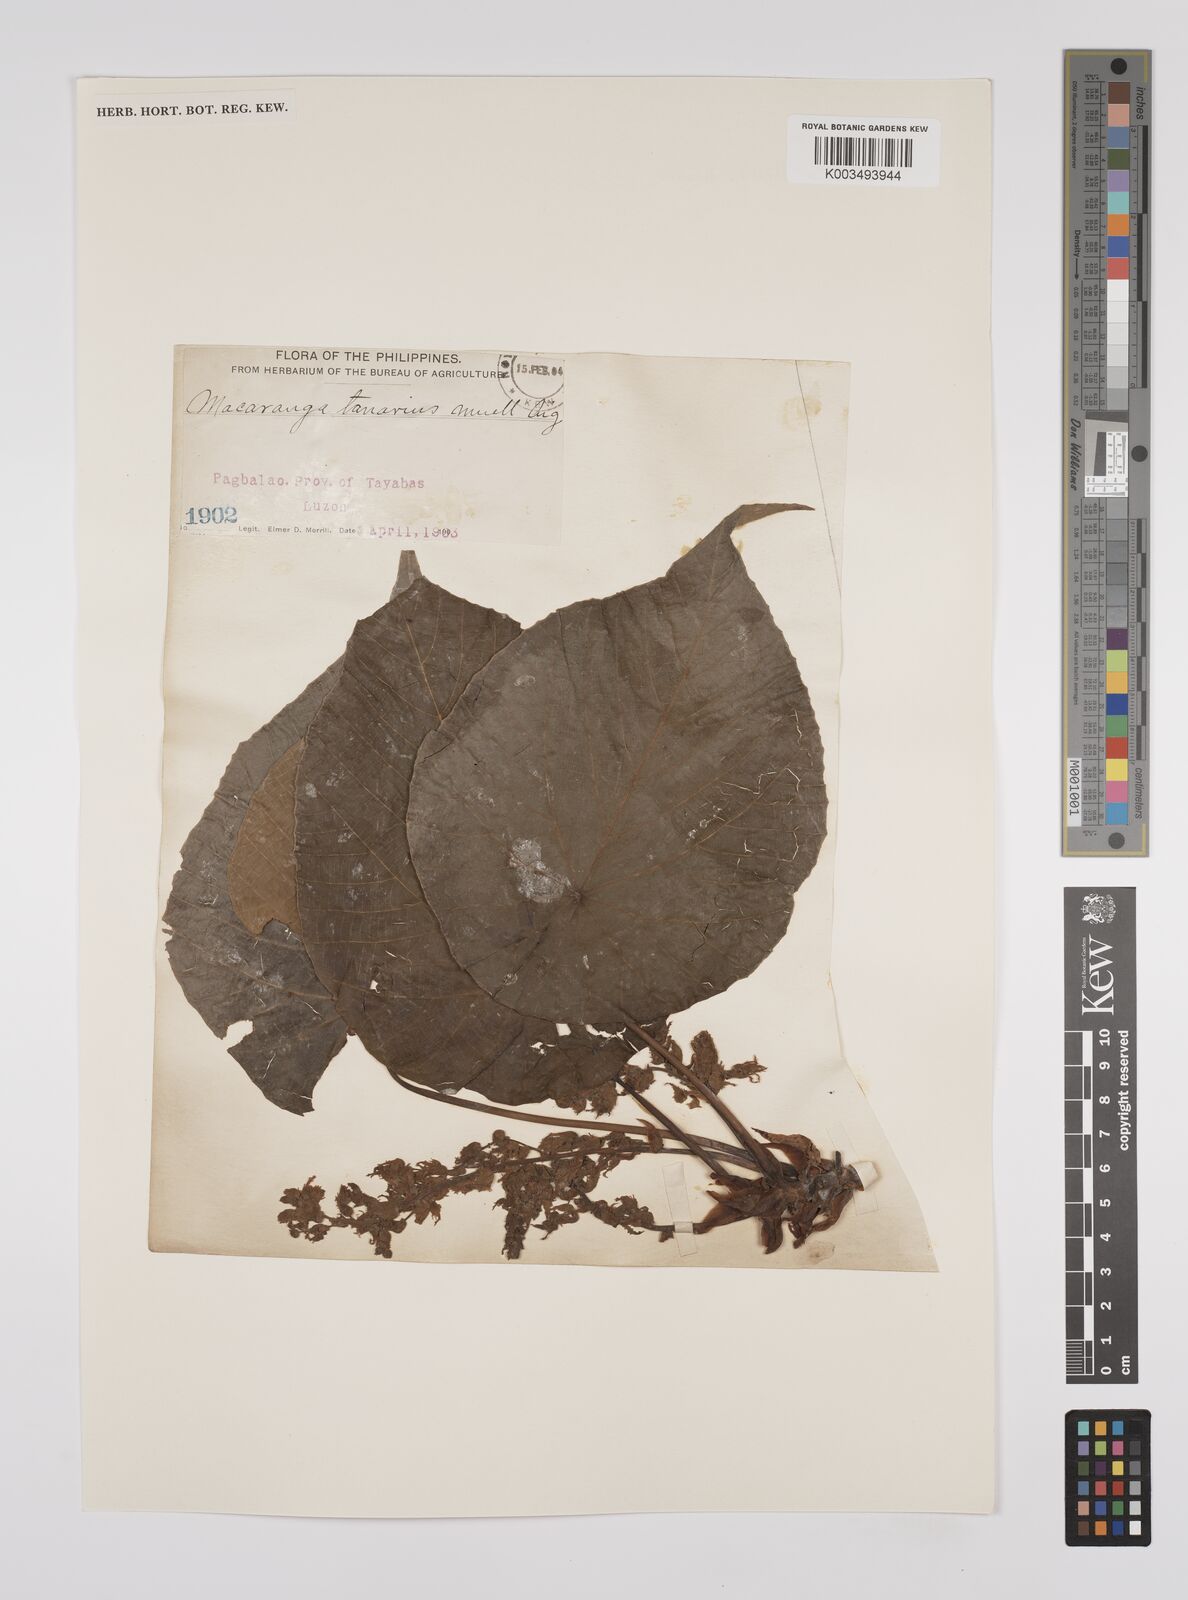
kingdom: Plantae
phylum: Tracheophyta
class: Magnoliopsida
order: Malpighiales
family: Euphorbiaceae
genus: Macaranga
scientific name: Macaranga tanarius
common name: Parasol leaf tree
